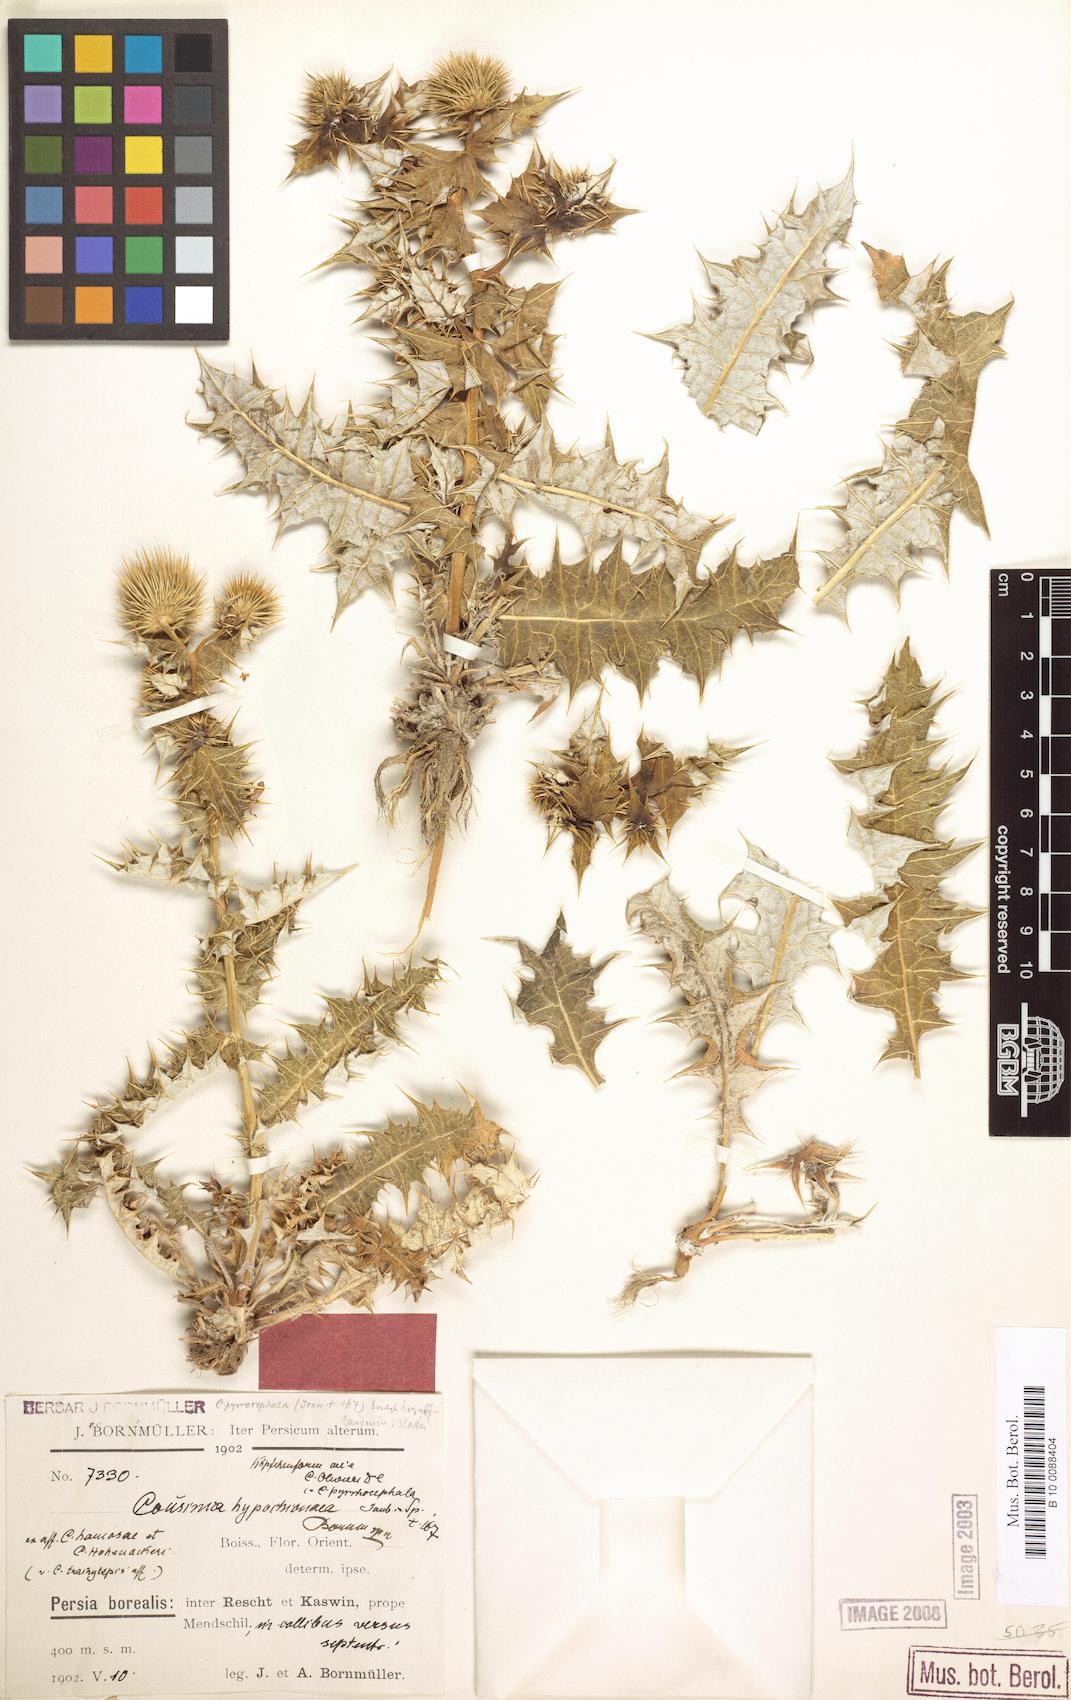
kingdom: Plantae
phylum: Tracheophyta
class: Magnoliopsida
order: Asterales
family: Asteraceae
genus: Cousinia
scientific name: Cousinia hypochionea
